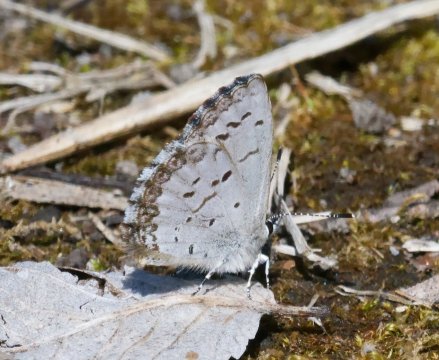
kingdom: Animalia
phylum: Arthropoda
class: Insecta
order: Lepidoptera
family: Lycaenidae
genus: Celastrina
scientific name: Celastrina lucia
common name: Northern Spring Azure
